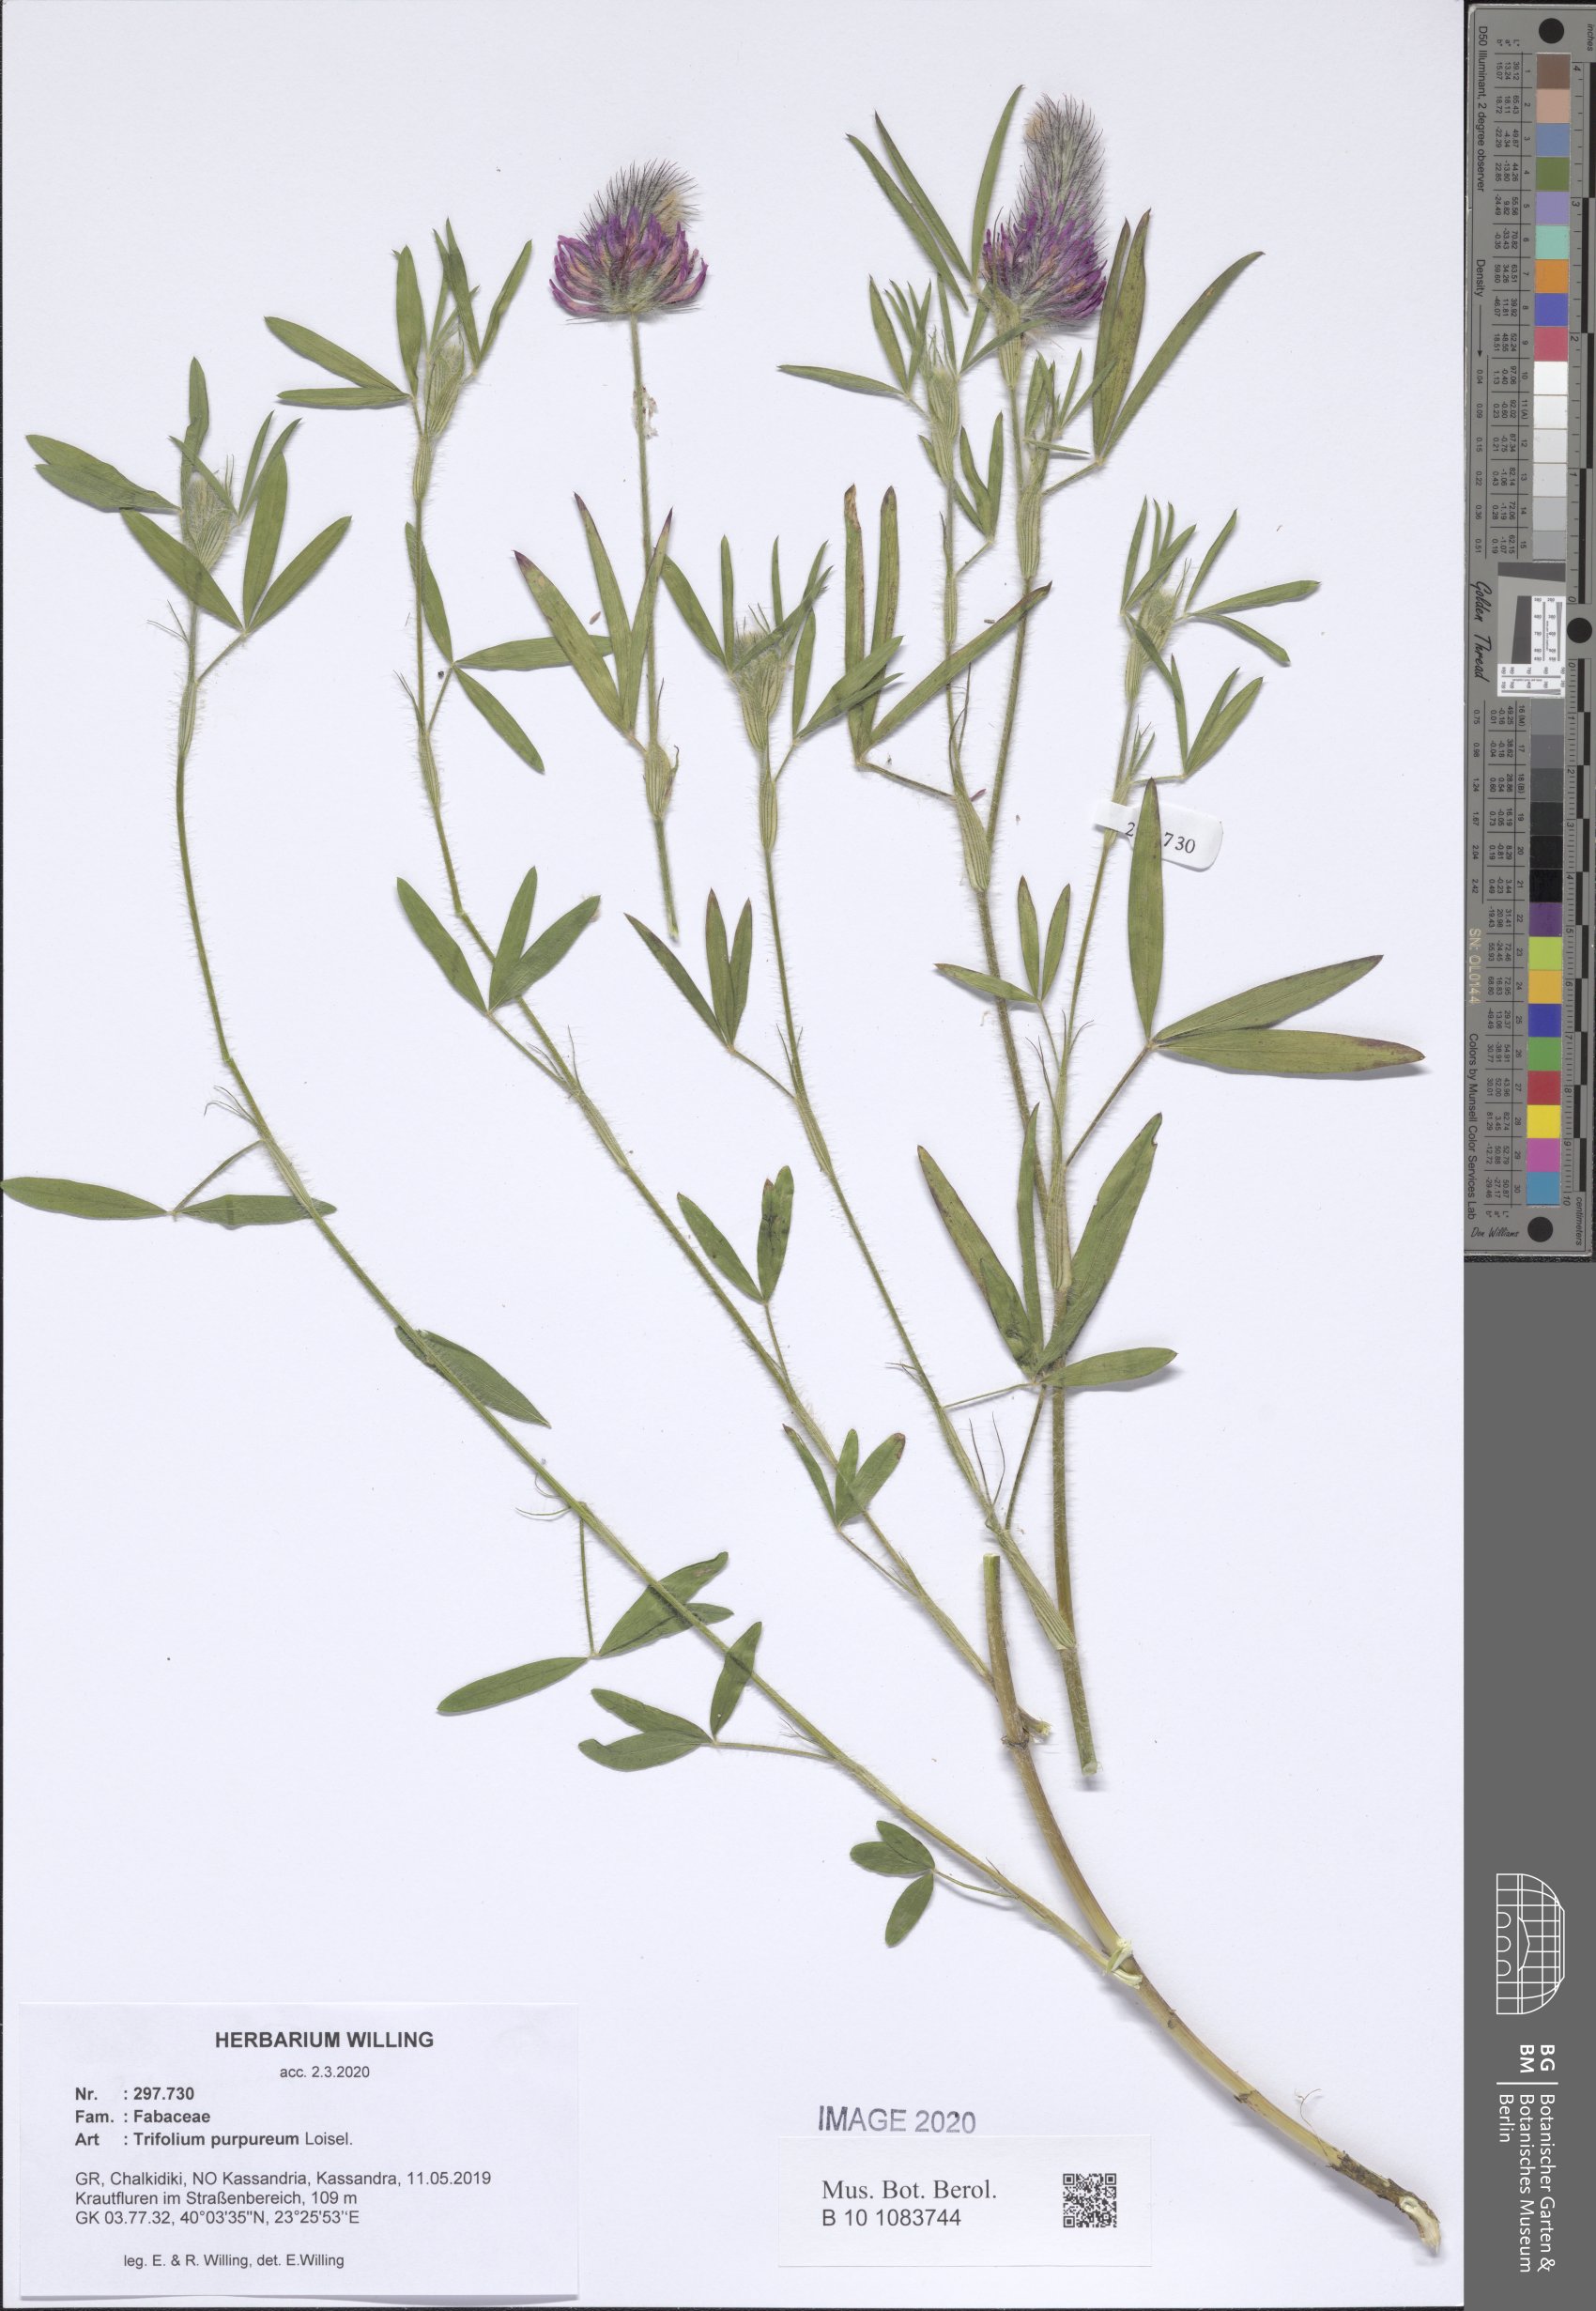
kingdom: Plantae
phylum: Tracheophyta
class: Magnoliopsida
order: Fabales
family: Fabaceae
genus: Trifolium
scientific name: Trifolium purpureum
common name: Purple clover
